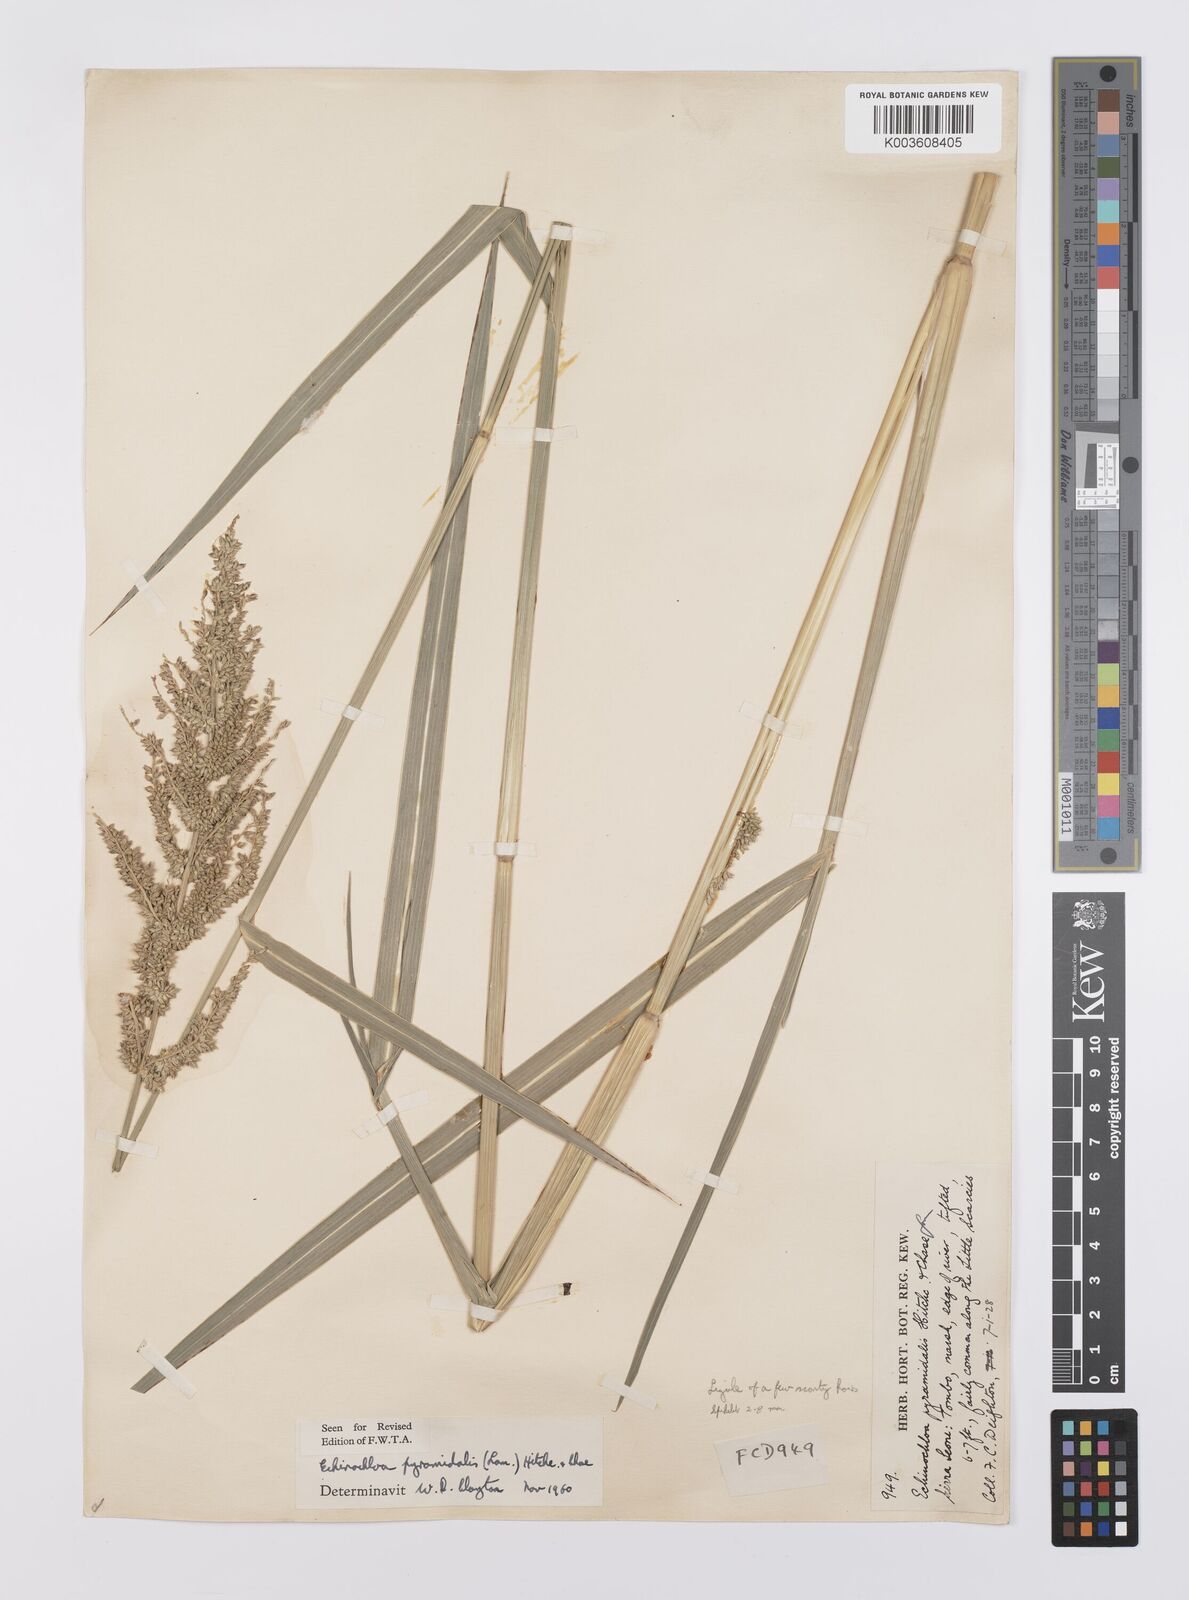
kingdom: Plantae
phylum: Tracheophyta
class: Liliopsida
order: Poales
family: Poaceae
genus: Echinochloa
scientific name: Echinochloa pyramidalis
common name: Antelope grass
